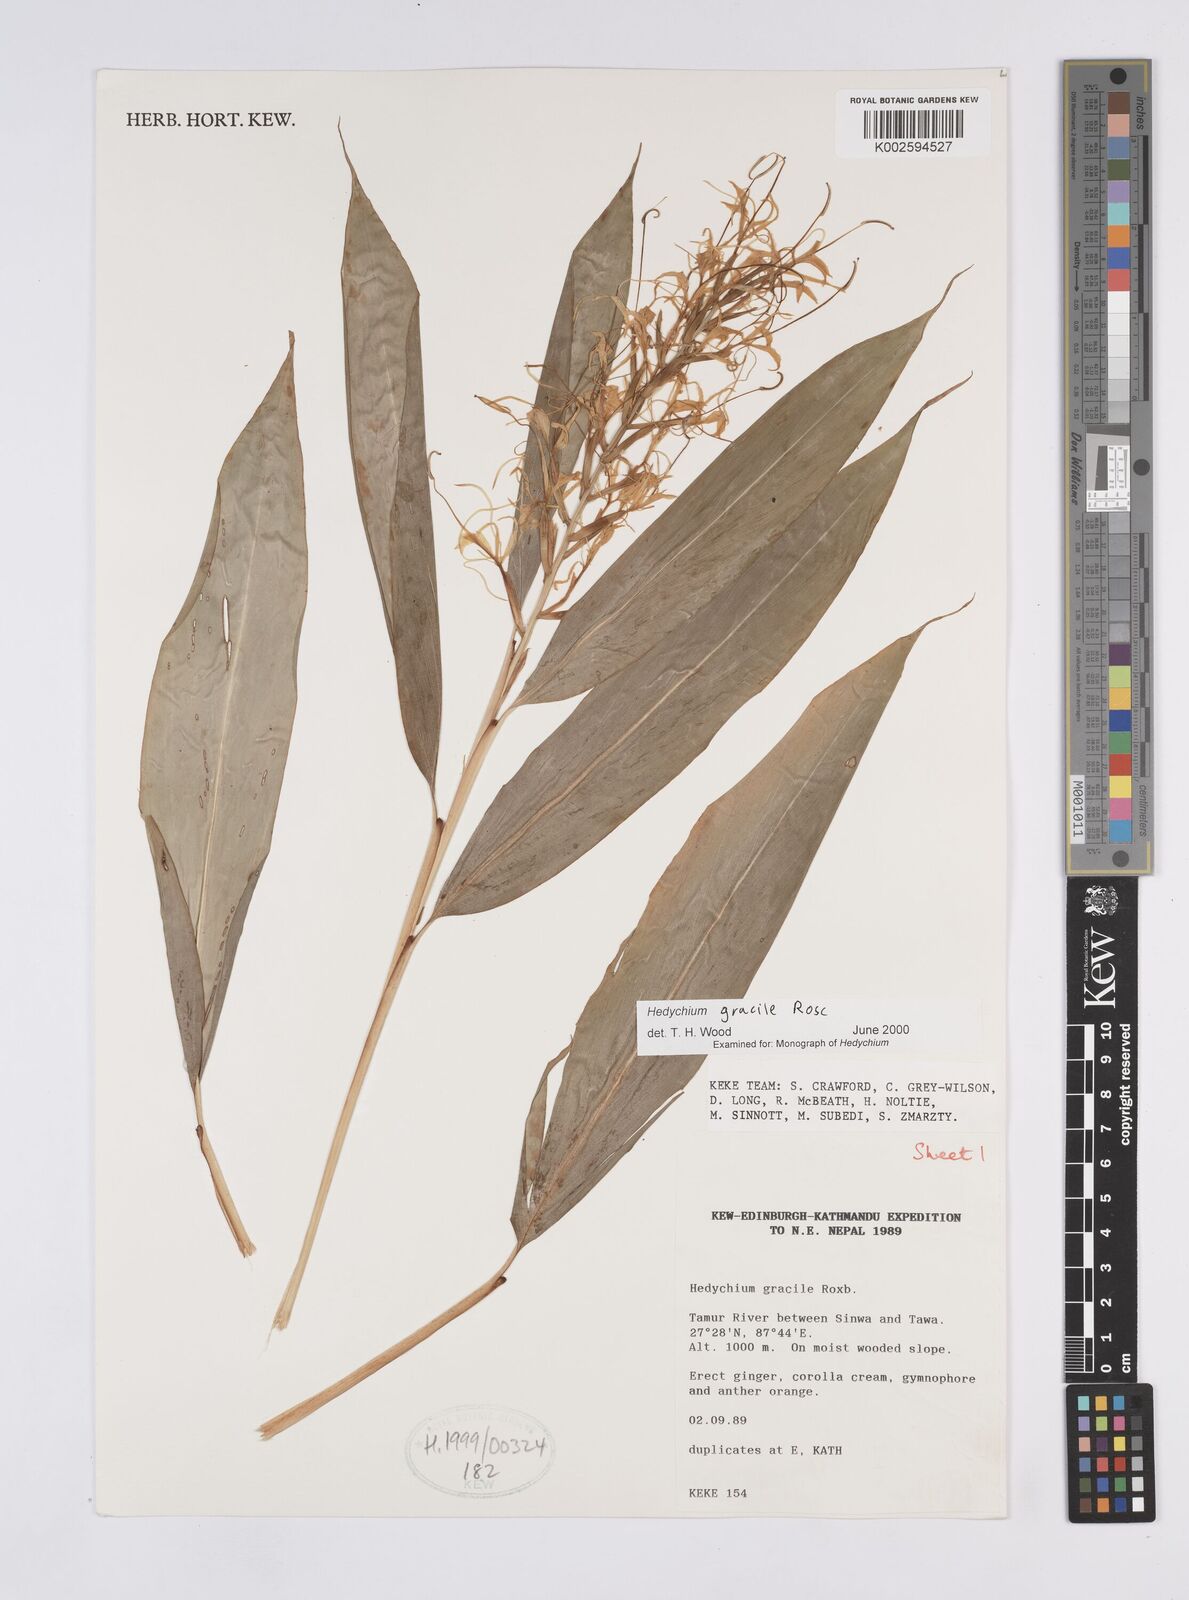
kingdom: Plantae
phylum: Tracheophyta
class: Liliopsida
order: Zingiberales
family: Zingiberaceae
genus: Hedychium
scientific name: Hedychium gracile
